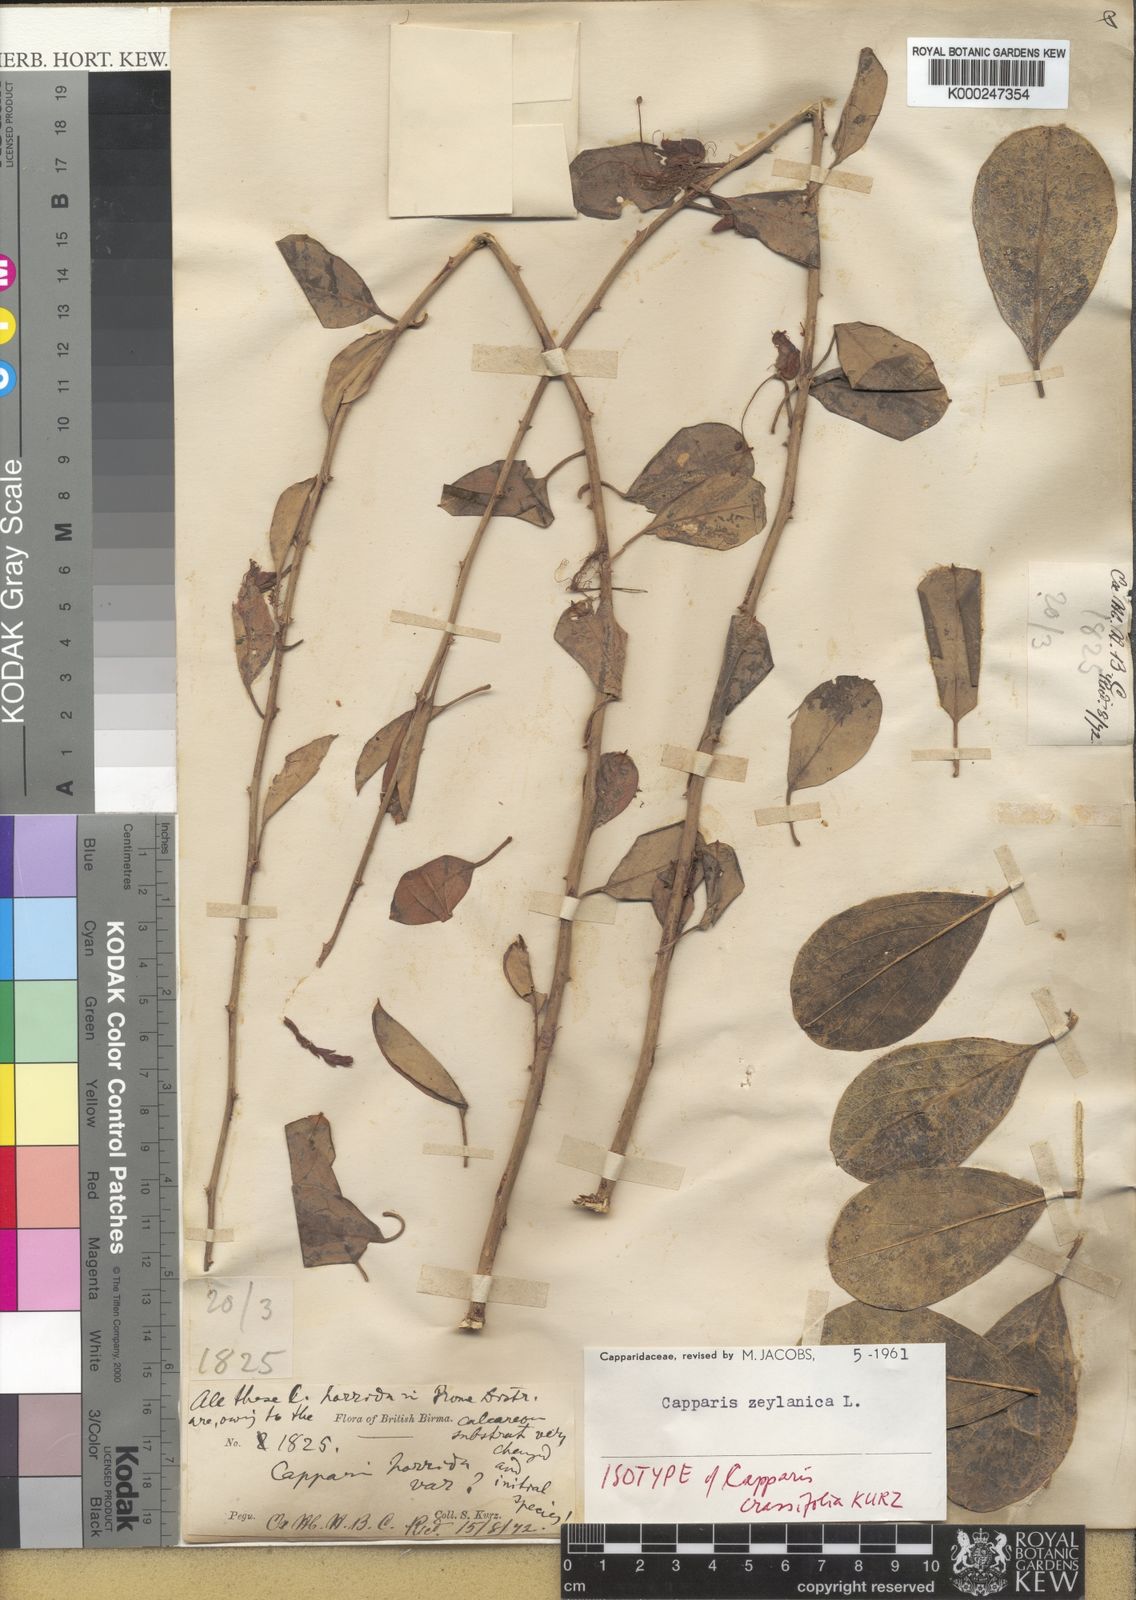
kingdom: Plantae
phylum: Tracheophyta
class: Magnoliopsida
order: Brassicales
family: Capparaceae
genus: Capparis
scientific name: Capparis zeylanica
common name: Ceylon caper
